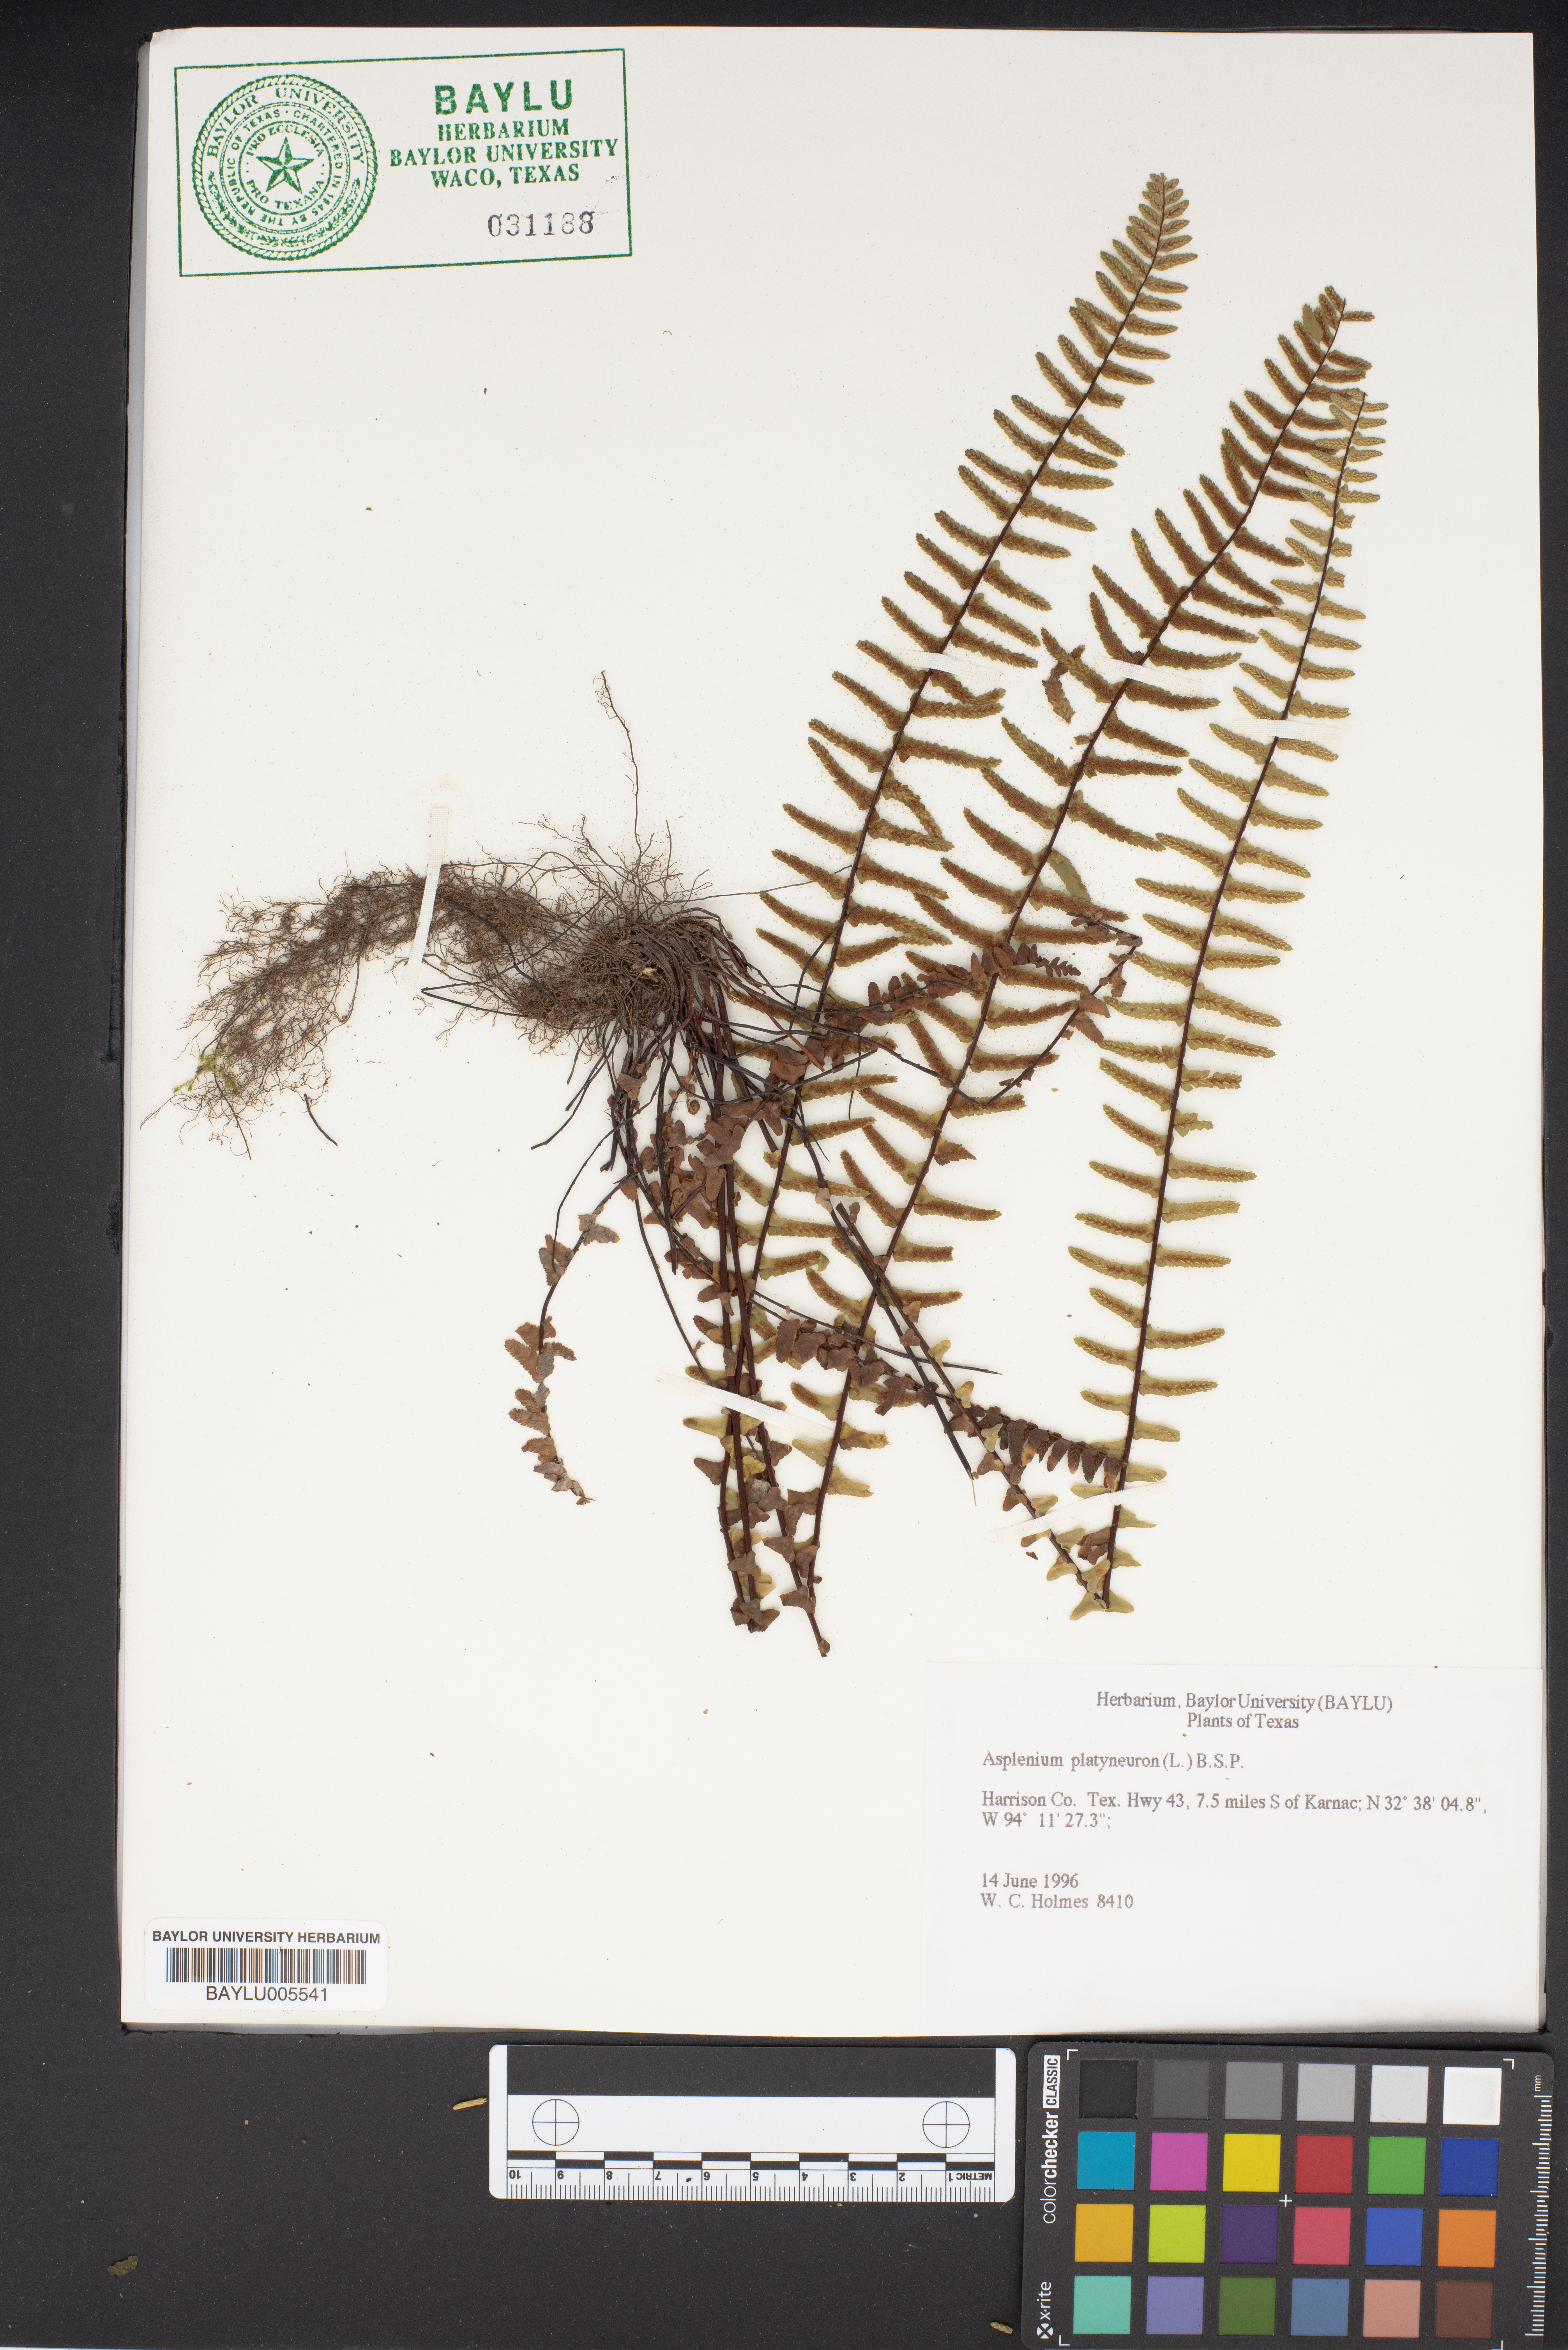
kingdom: Plantae
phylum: Tracheophyta
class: Polypodiopsida
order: Polypodiales
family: Aspleniaceae
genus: Asplenium
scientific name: Asplenium platyneuron
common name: Ebony spleenwort
